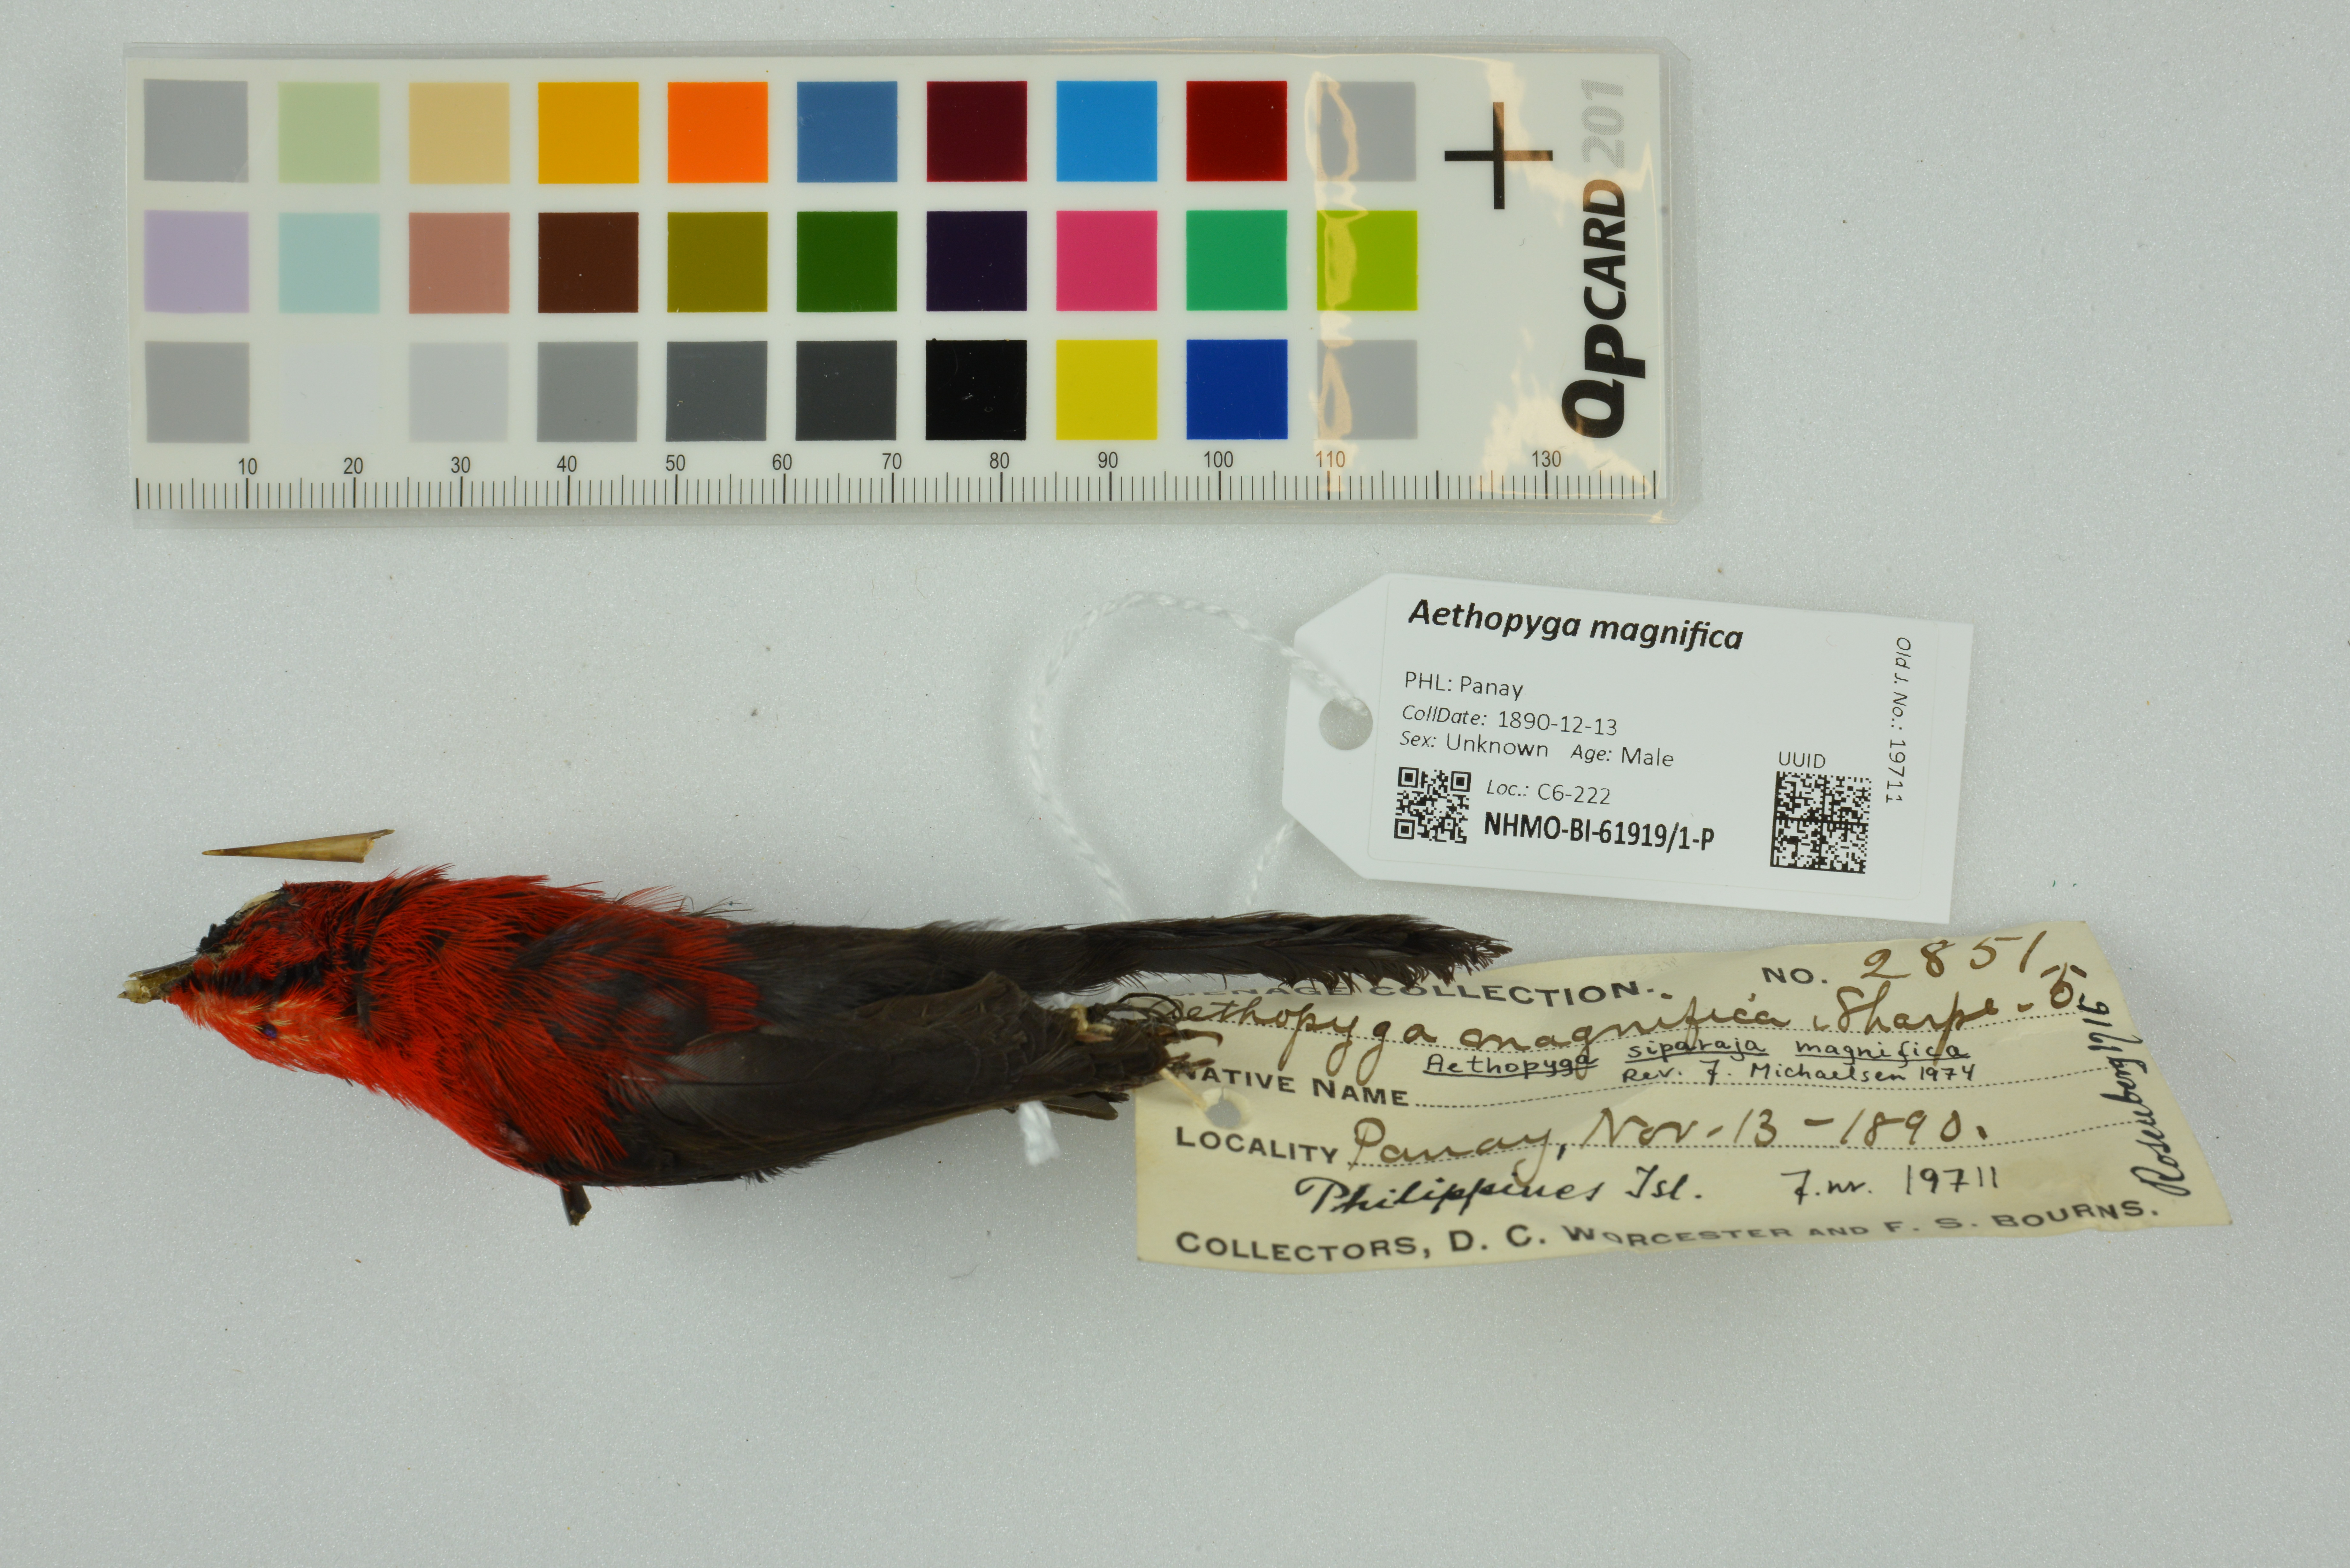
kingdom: Animalia
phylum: Chordata
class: Aves
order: Passeriformes
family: Nectariniidae
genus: Aethopyga
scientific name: Aethopyga magnifica
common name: Magnificent sunbird
